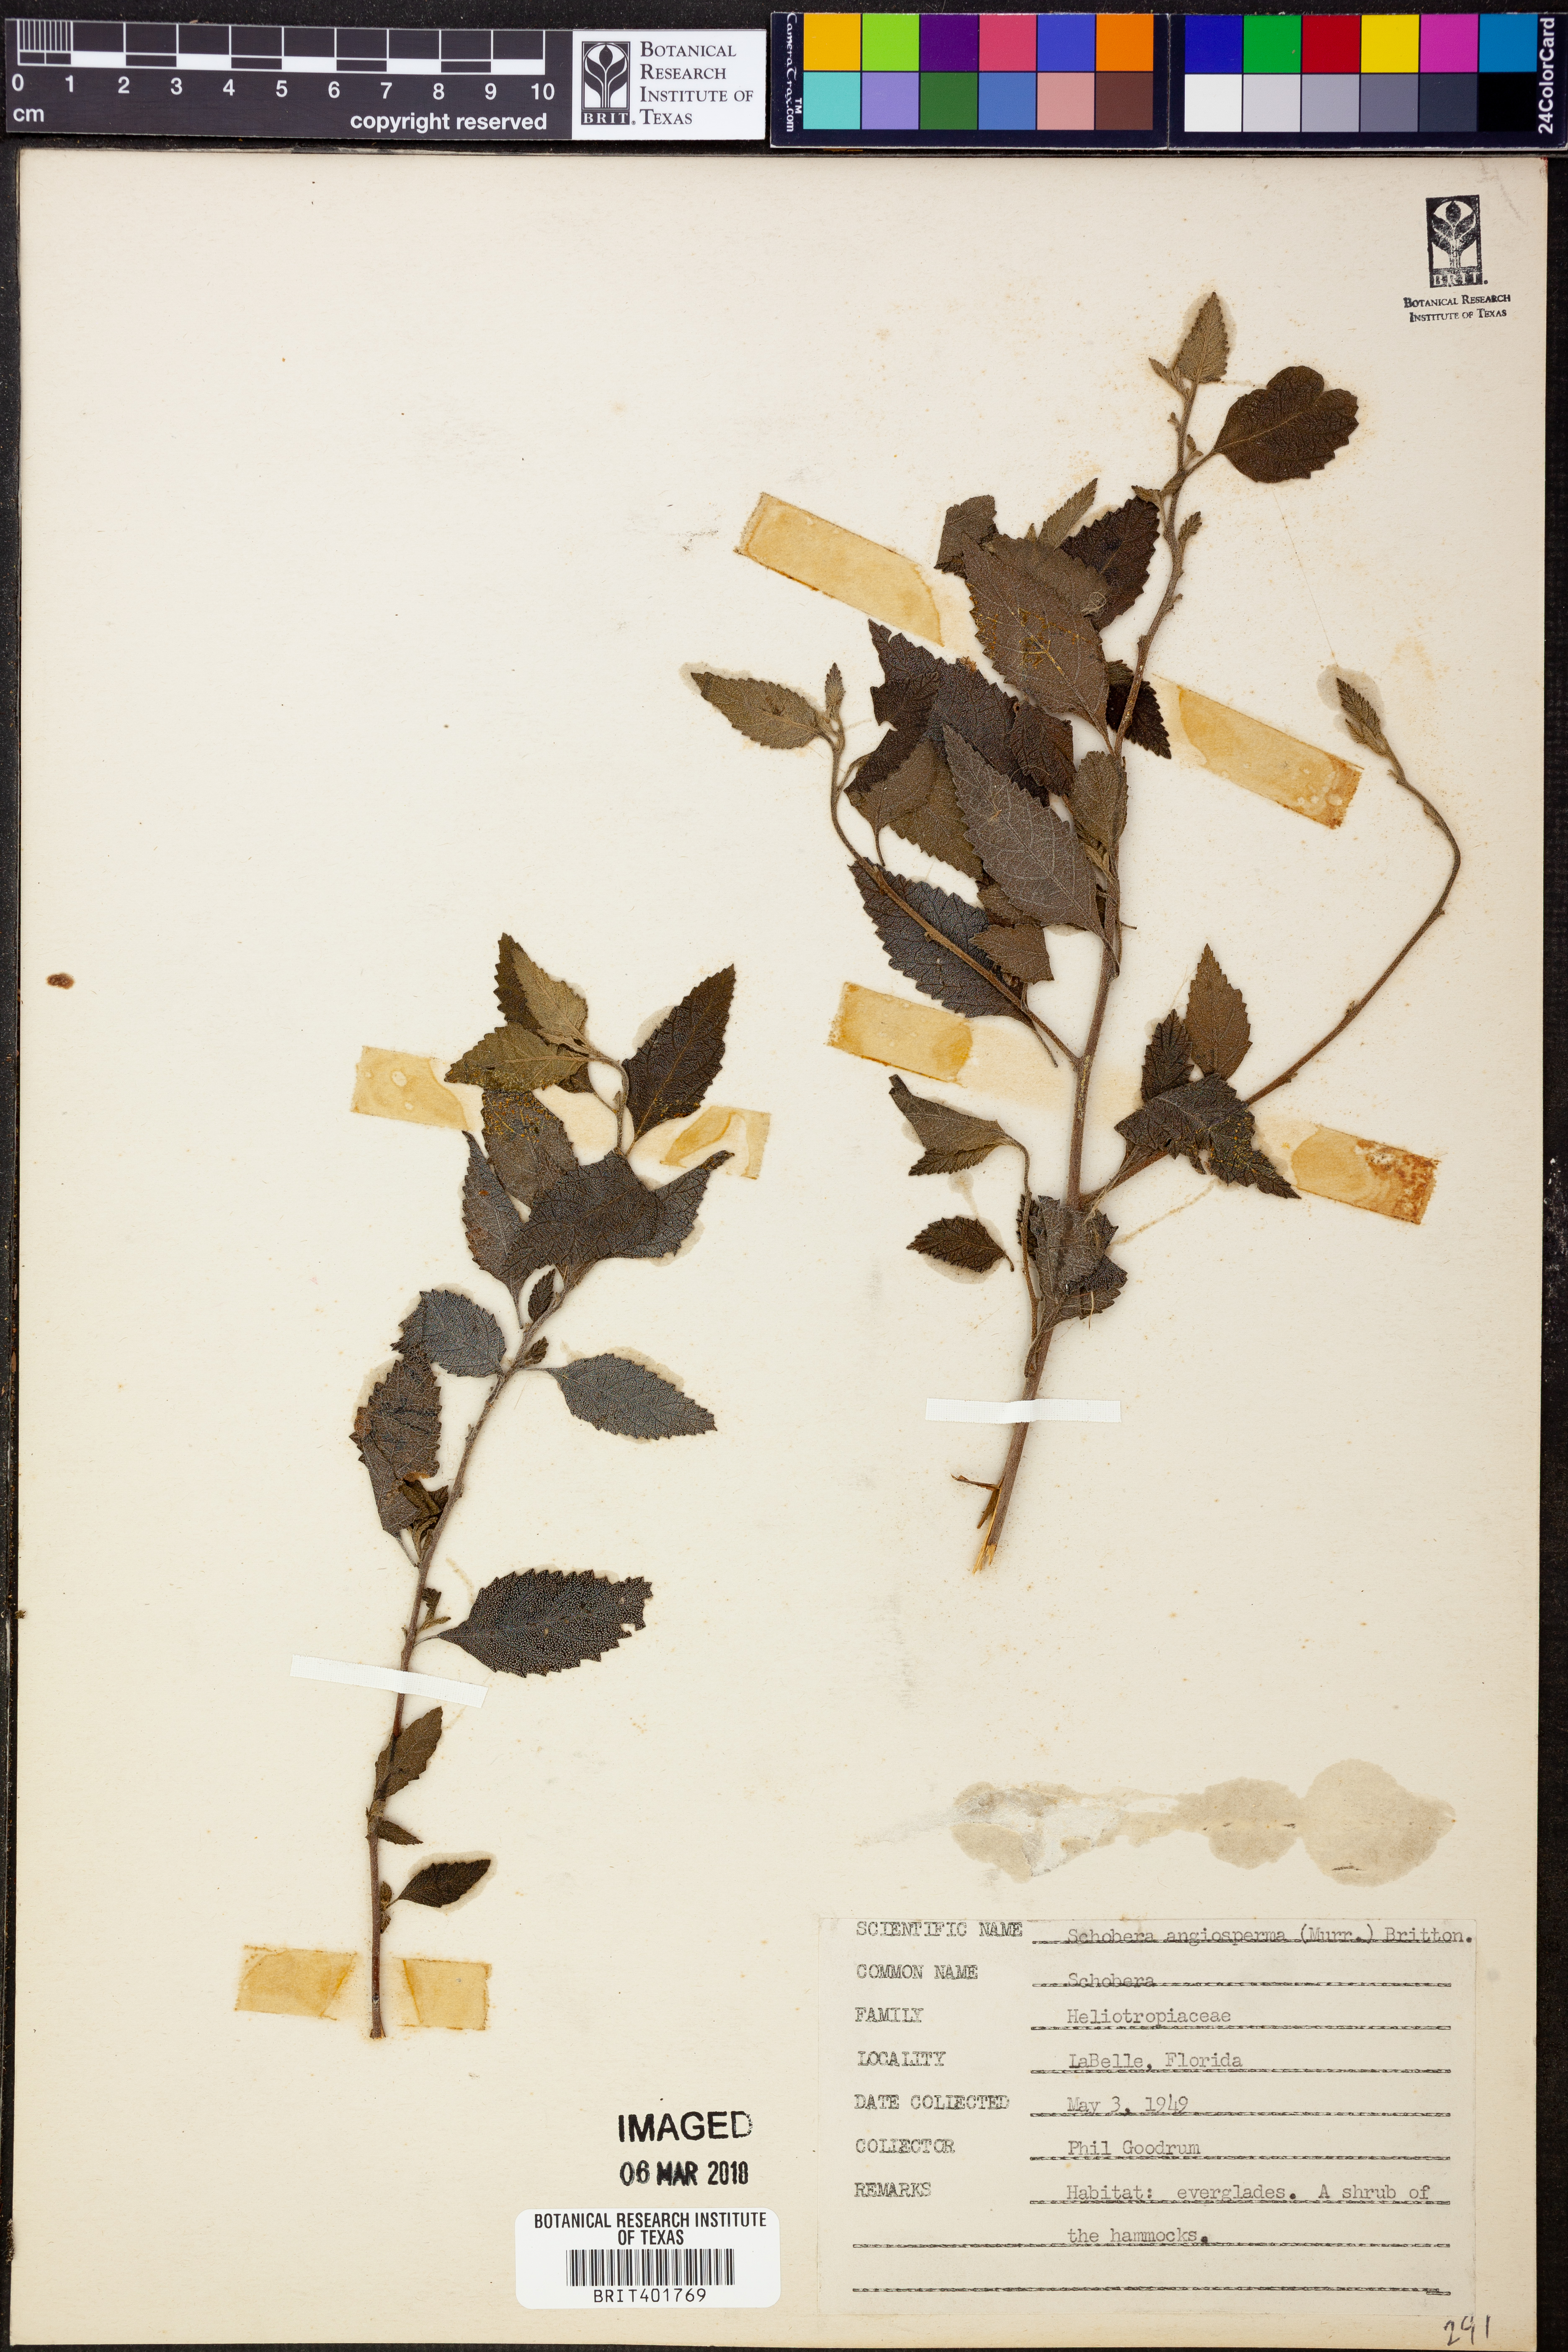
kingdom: Plantae
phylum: Tracheophyta
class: Magnoliopsida
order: Boraginales
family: Heliotropiaceae
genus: Heliotropium
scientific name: Heliotropium angiospermum
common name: Eye bright
